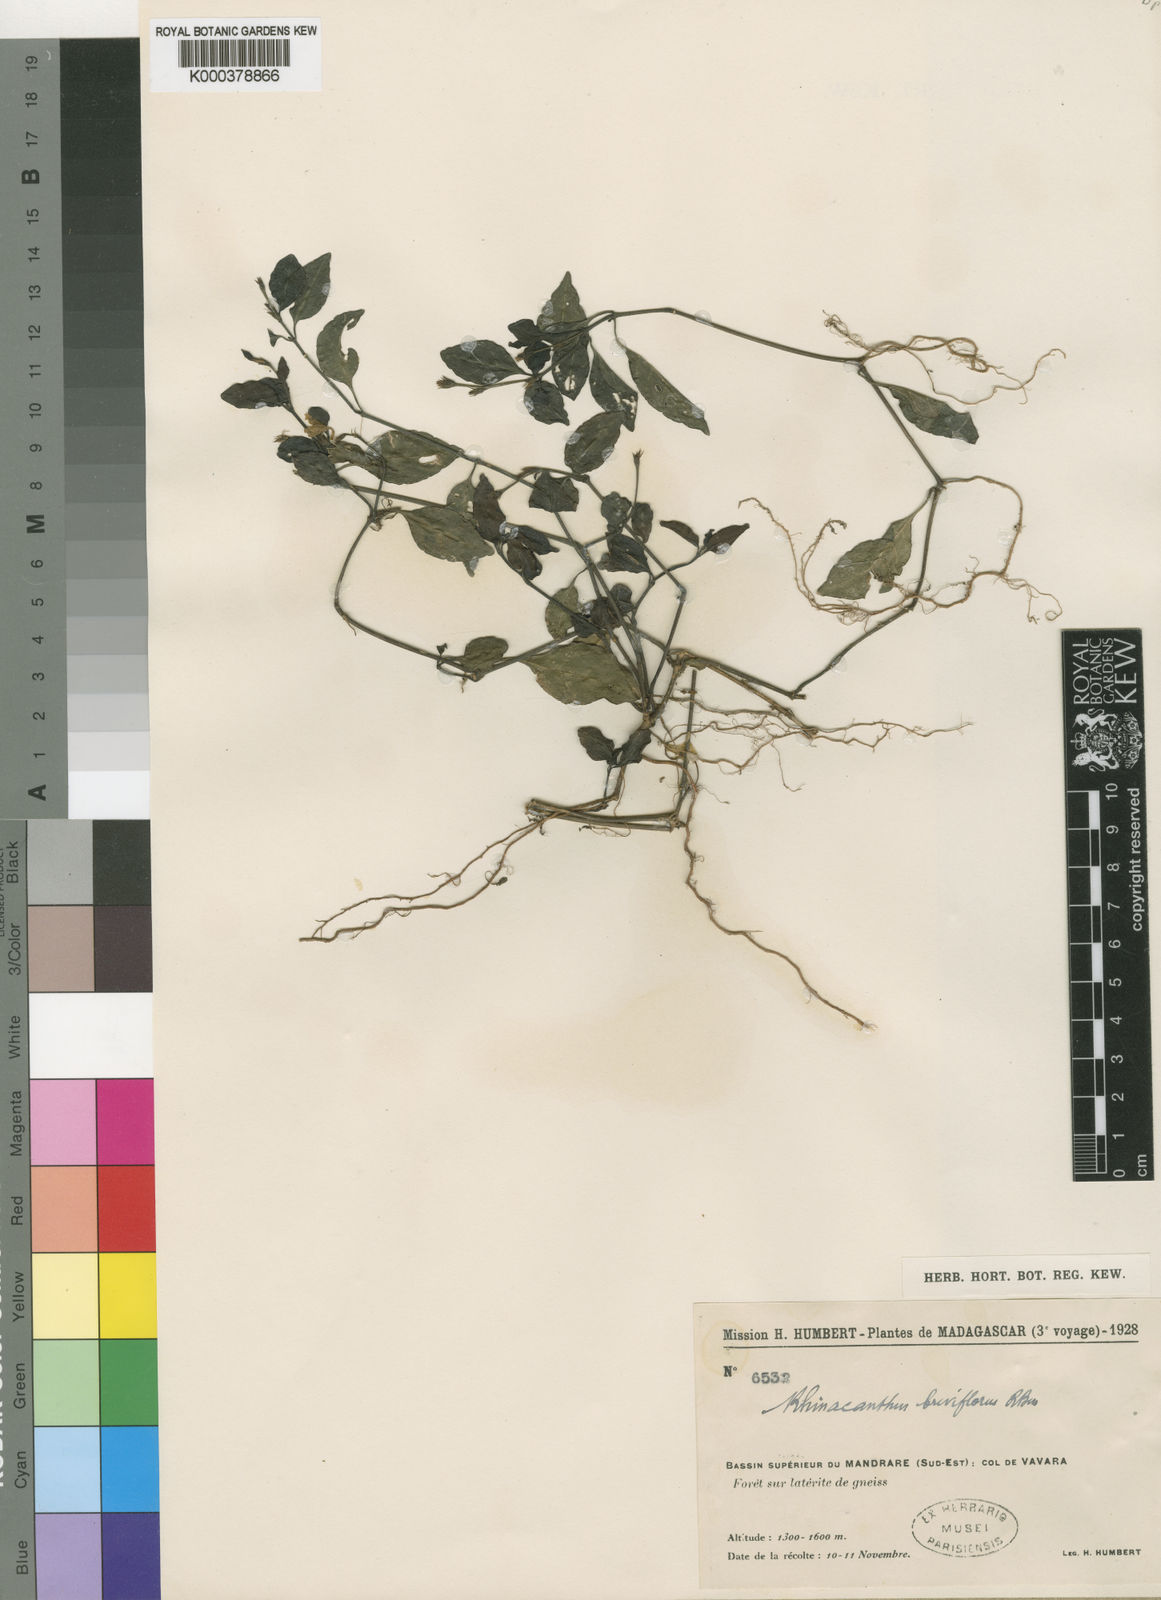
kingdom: Plantae
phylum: Tracheophyta
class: Magnoliopsida
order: Lamiales
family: Acanthaceae
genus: Vavara
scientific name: Vavara breviflora
